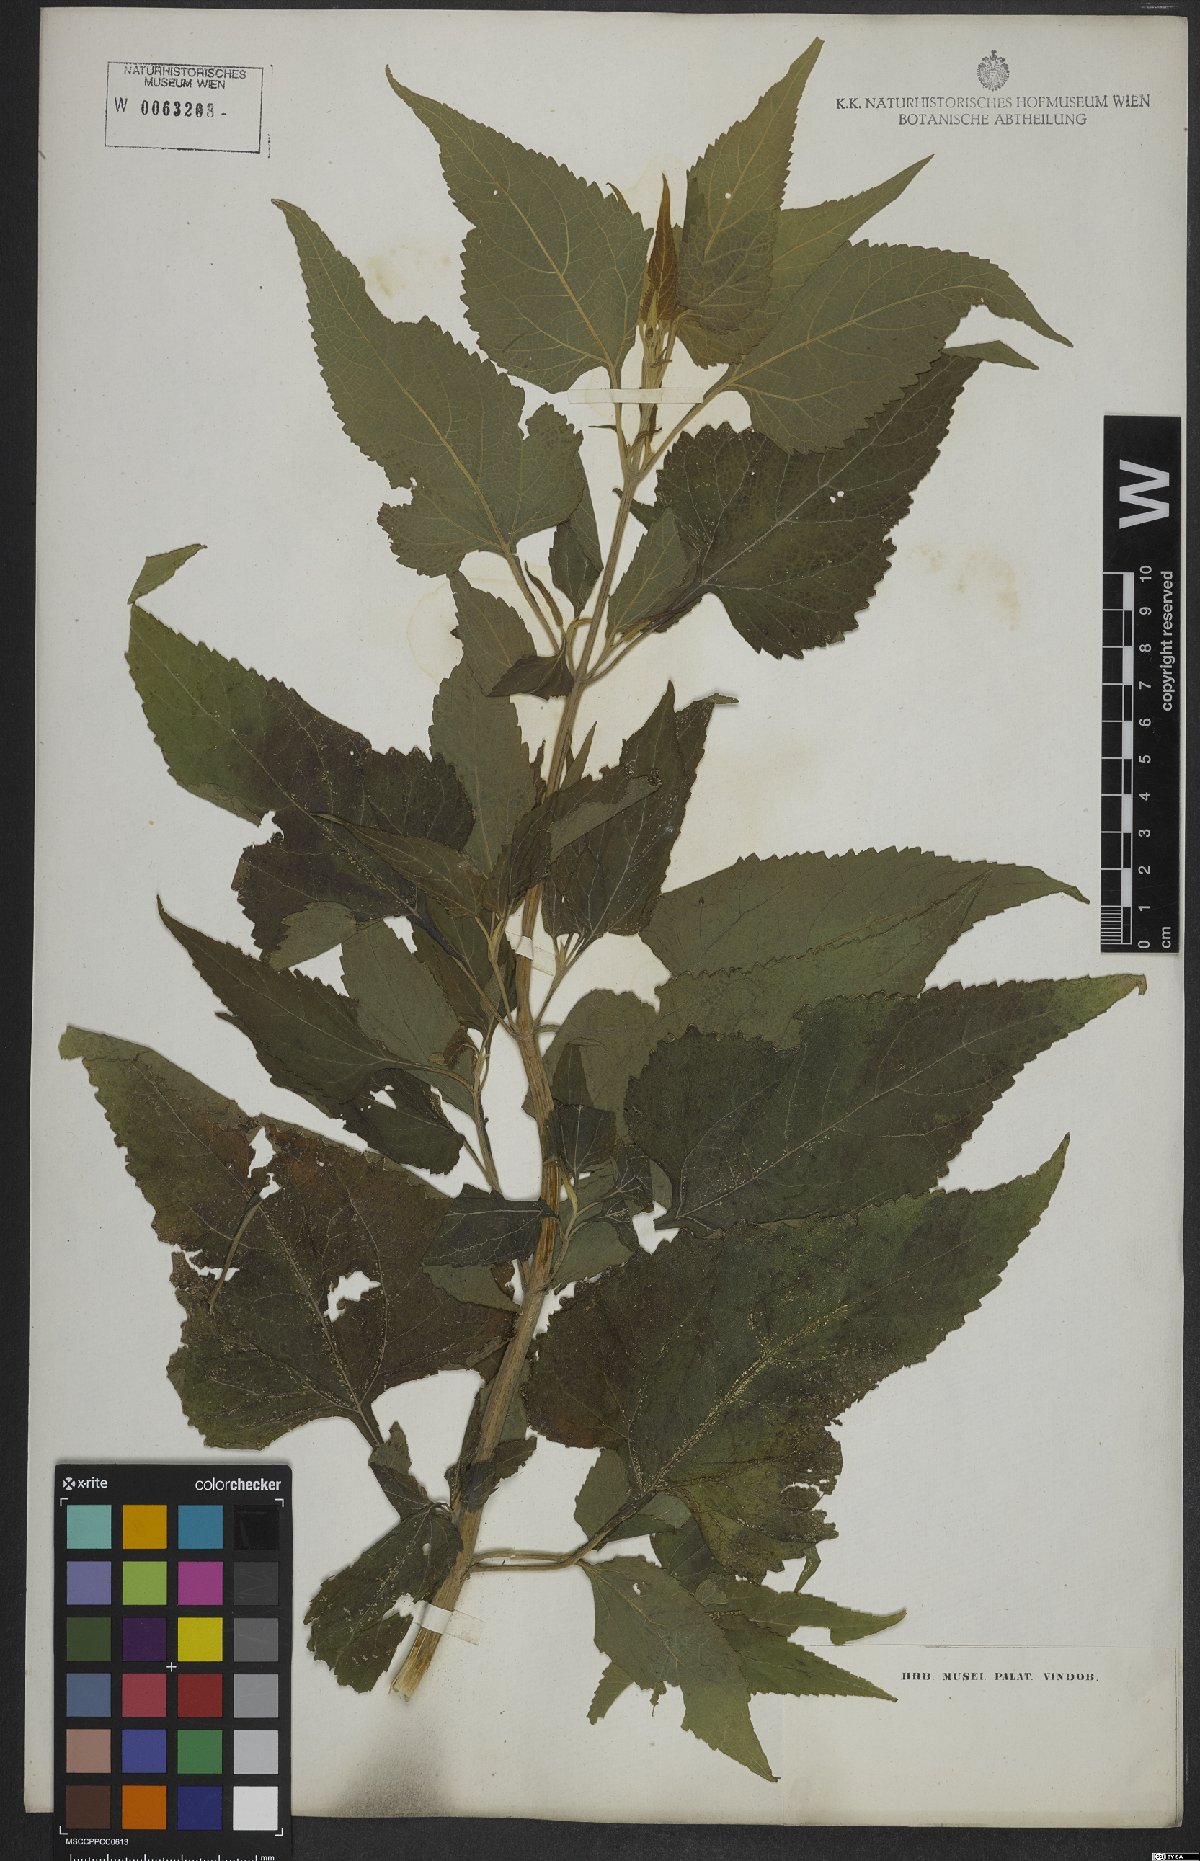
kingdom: Plantae
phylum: Tracheophyta
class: Magnoliopsida
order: Asterales
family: Asteraceae
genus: Austroeupatorium
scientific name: Austroeupatorium inulifolium
